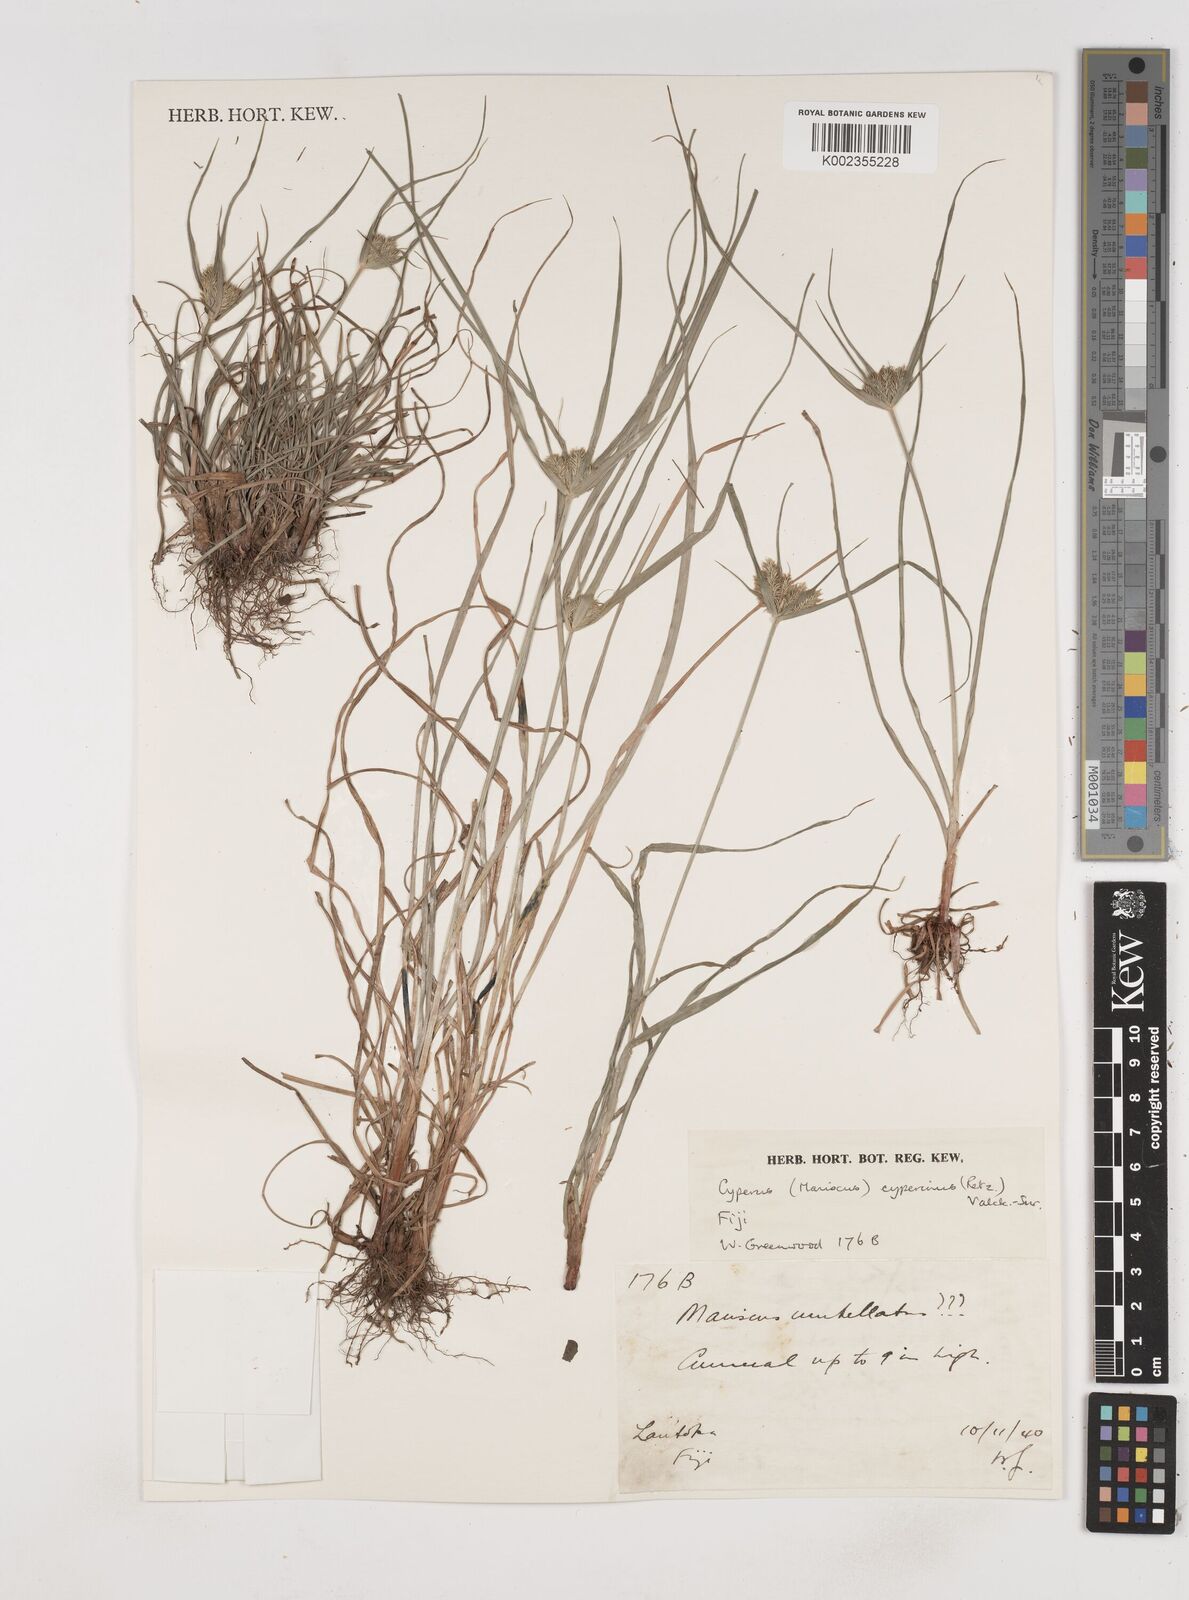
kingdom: Plantae
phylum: Tracheophyta
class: Liliopsida
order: Poales
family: Cyperaceae
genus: Cyperus
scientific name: Cyperus cyperinus
